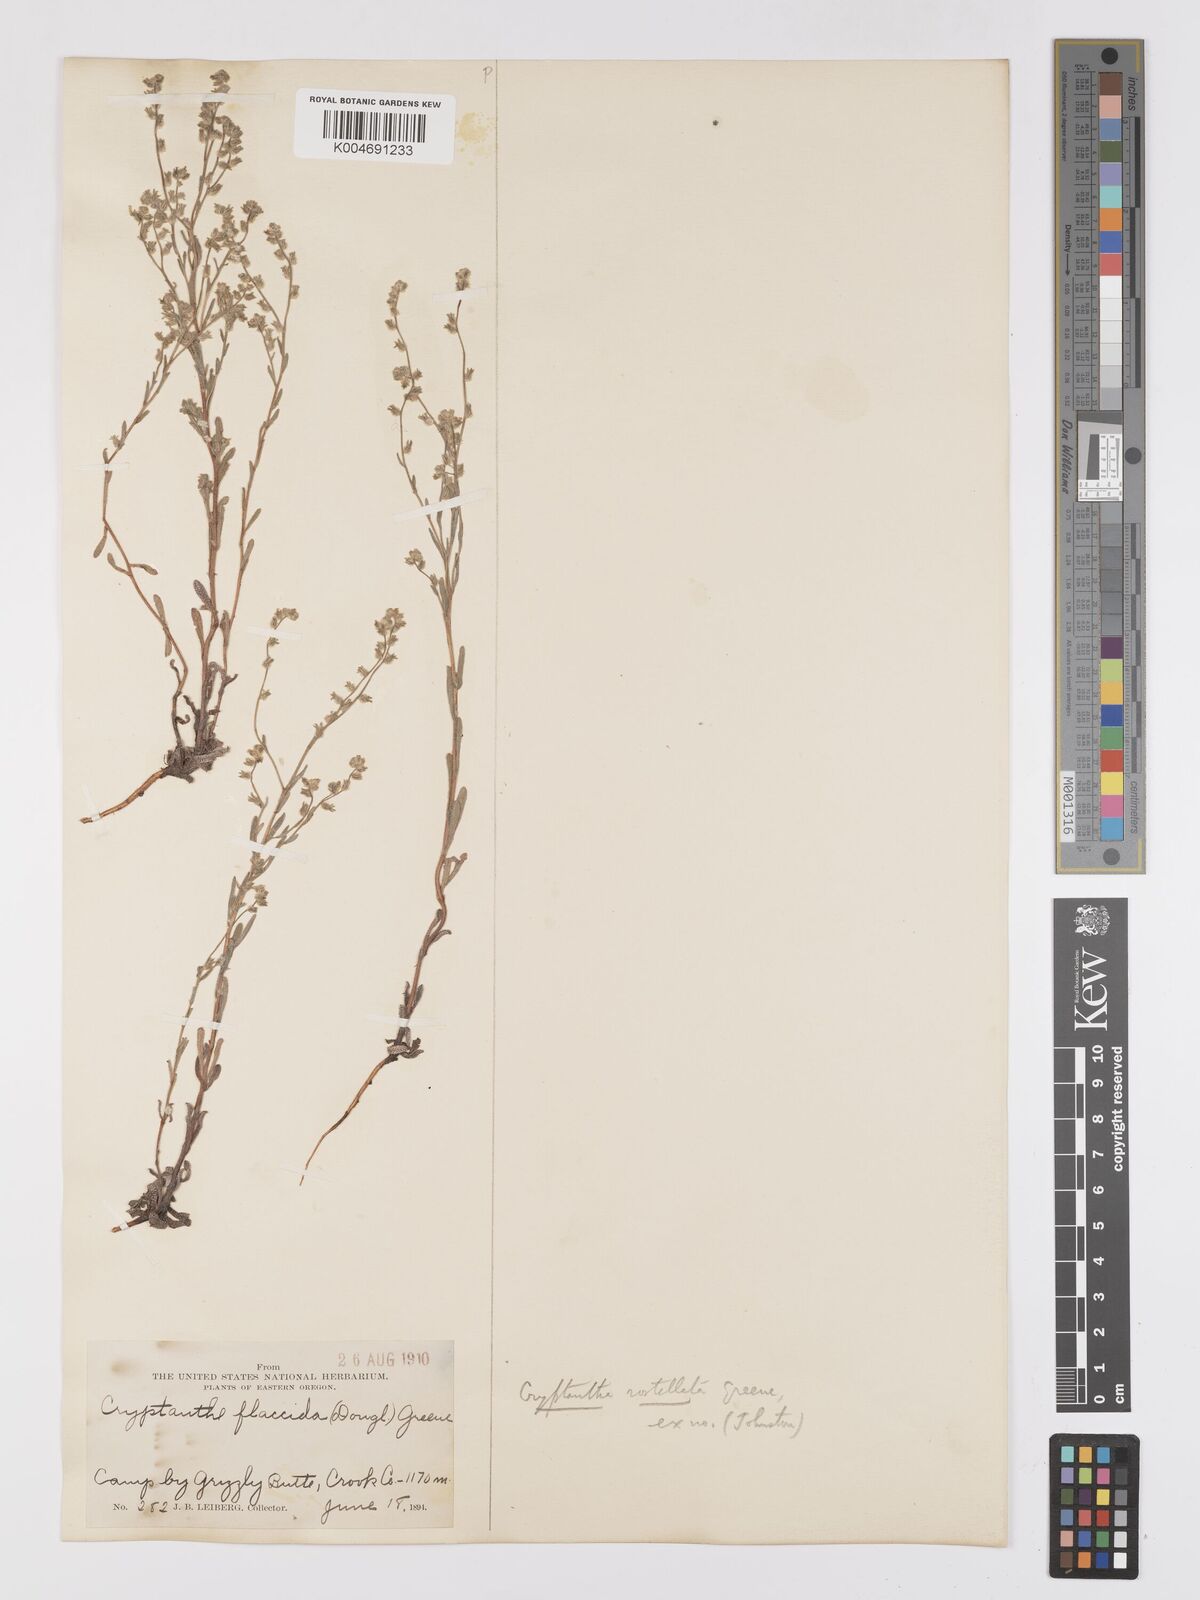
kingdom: Plantae
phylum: Tracheophyta
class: Magnoliopsida
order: Boraginales
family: Boraginaceae
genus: Cryptantha
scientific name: Cryptantha rostellata
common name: Beaked cryptantha
